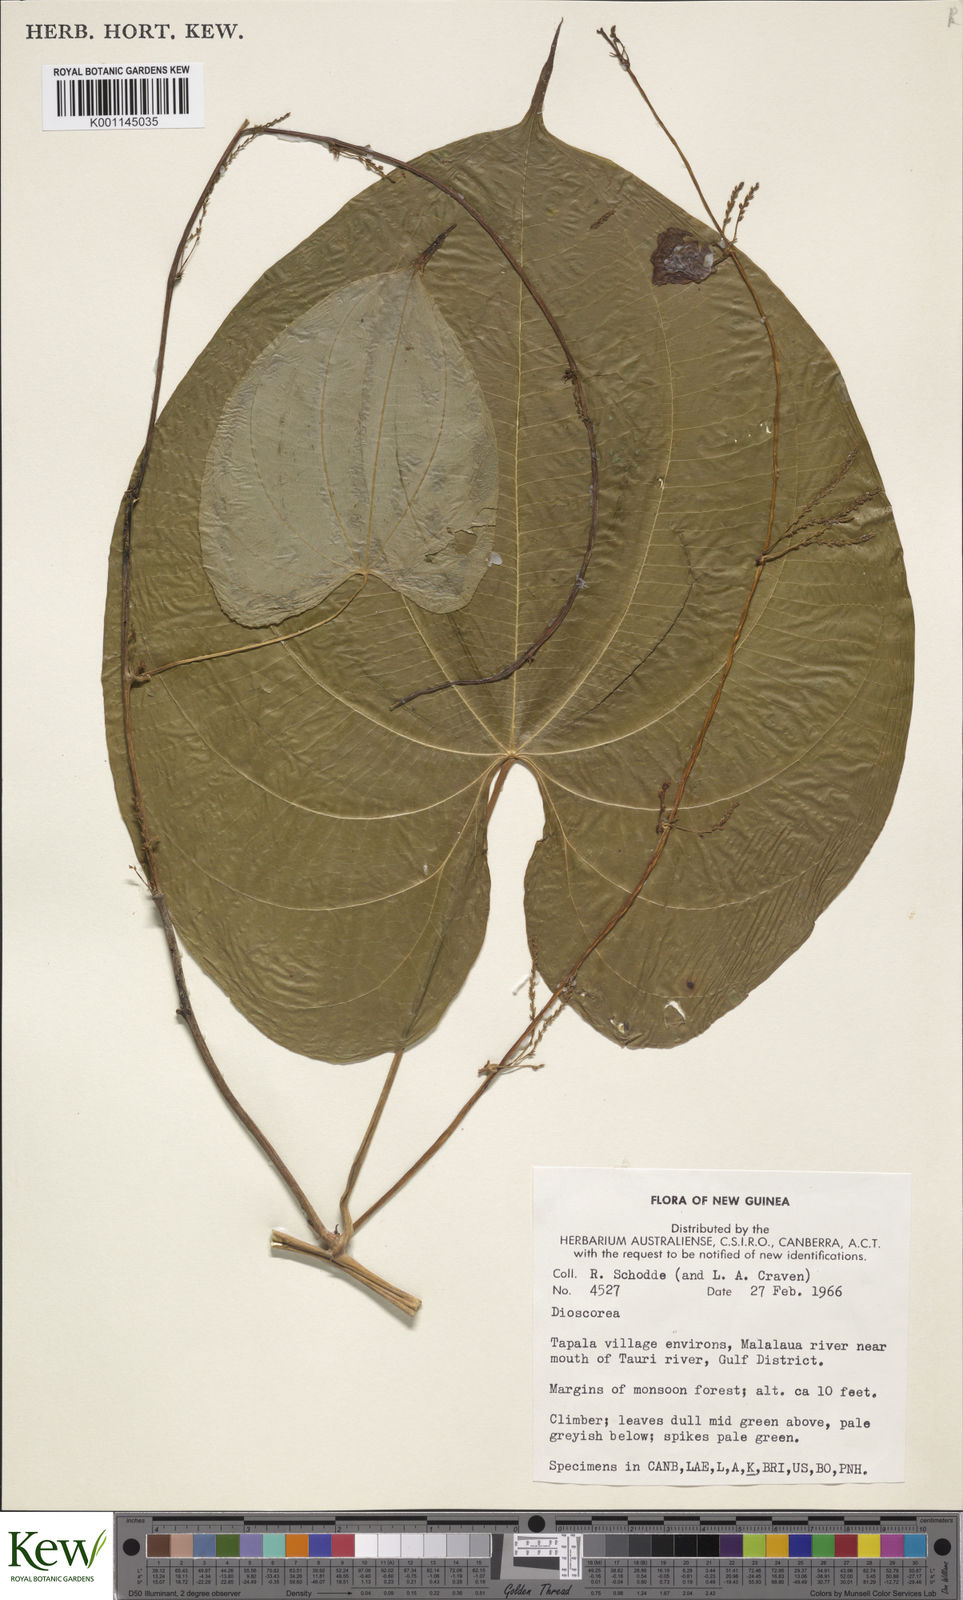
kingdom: Plantae
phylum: Tracheophyta
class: Liliopsida
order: Dioscoreales
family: Dioscoreaceae
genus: Dioscorea
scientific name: Dioscorea
